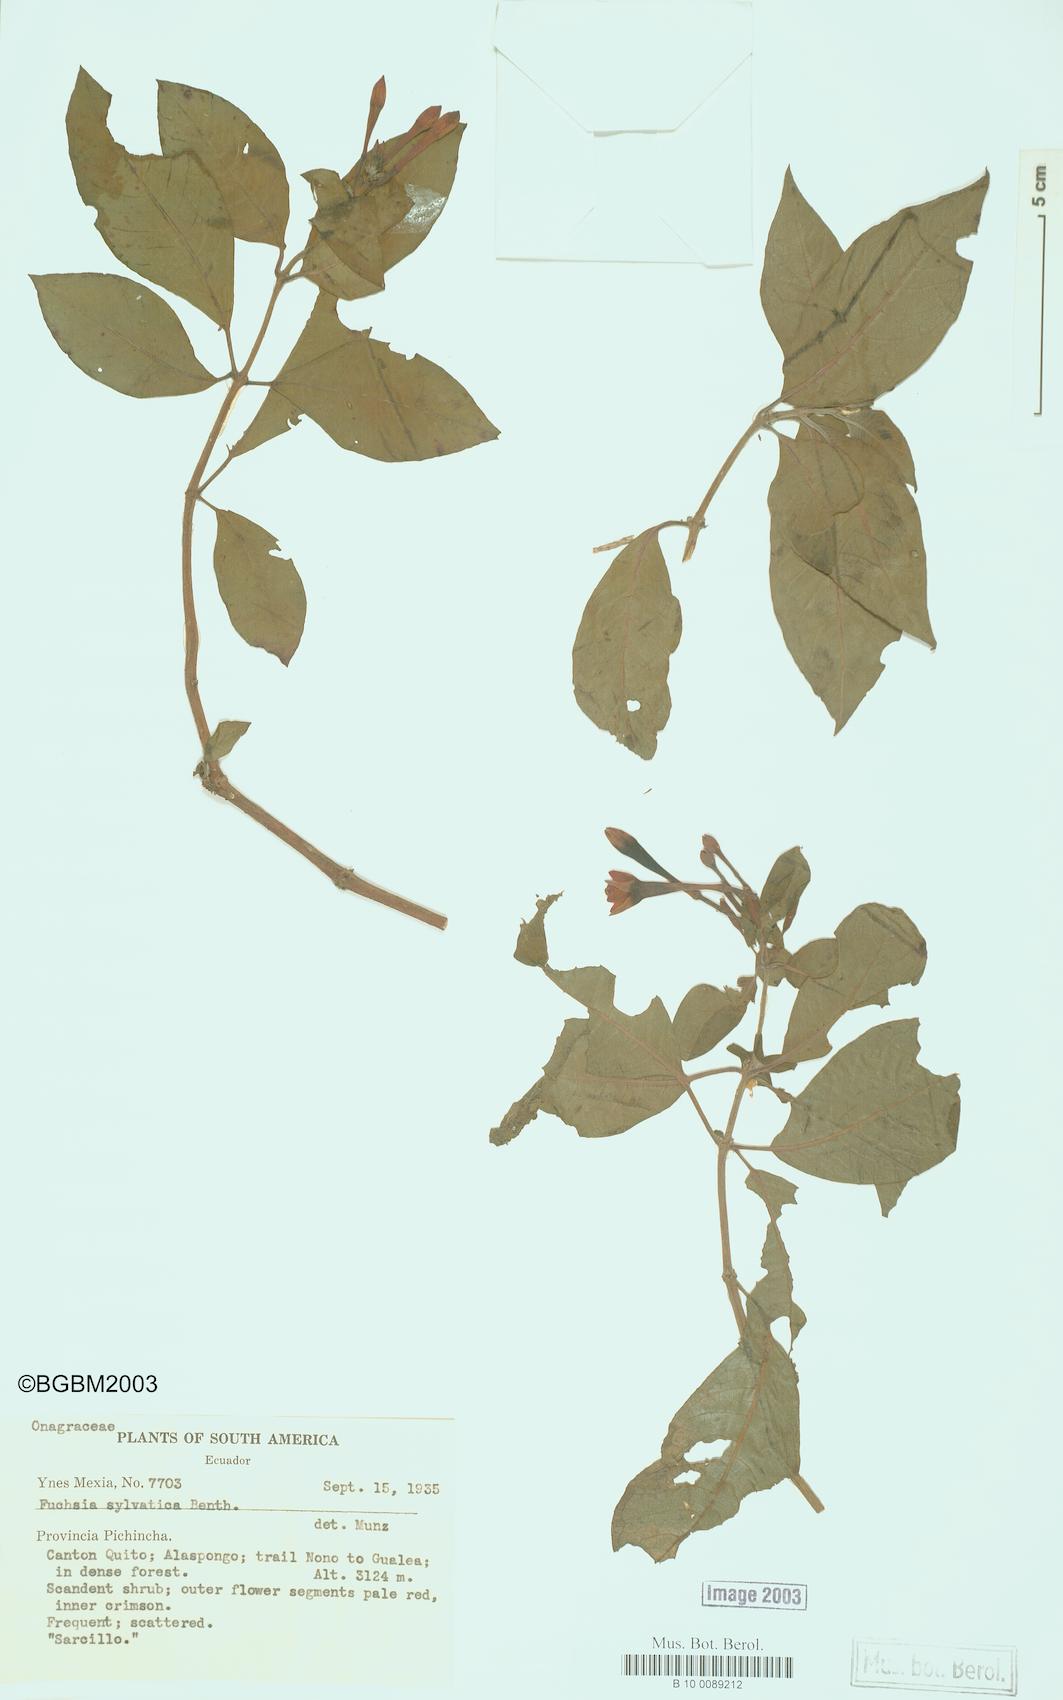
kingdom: Plantae
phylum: Tracheophyta
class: Magnoliopsida
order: Myrtales
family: Onagraceae
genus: Fuchsia
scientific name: Fuchsia sylvatica
